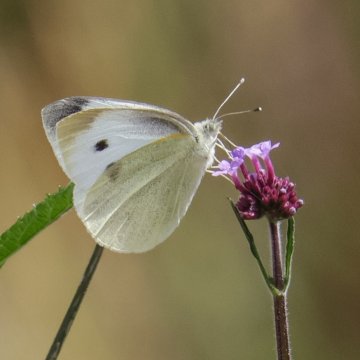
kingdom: Animalia
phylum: Arthropoda
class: Insecta
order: Lepidoptera
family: Pieridae
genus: Pieris
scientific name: Pieris rapae
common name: Cabbage White
